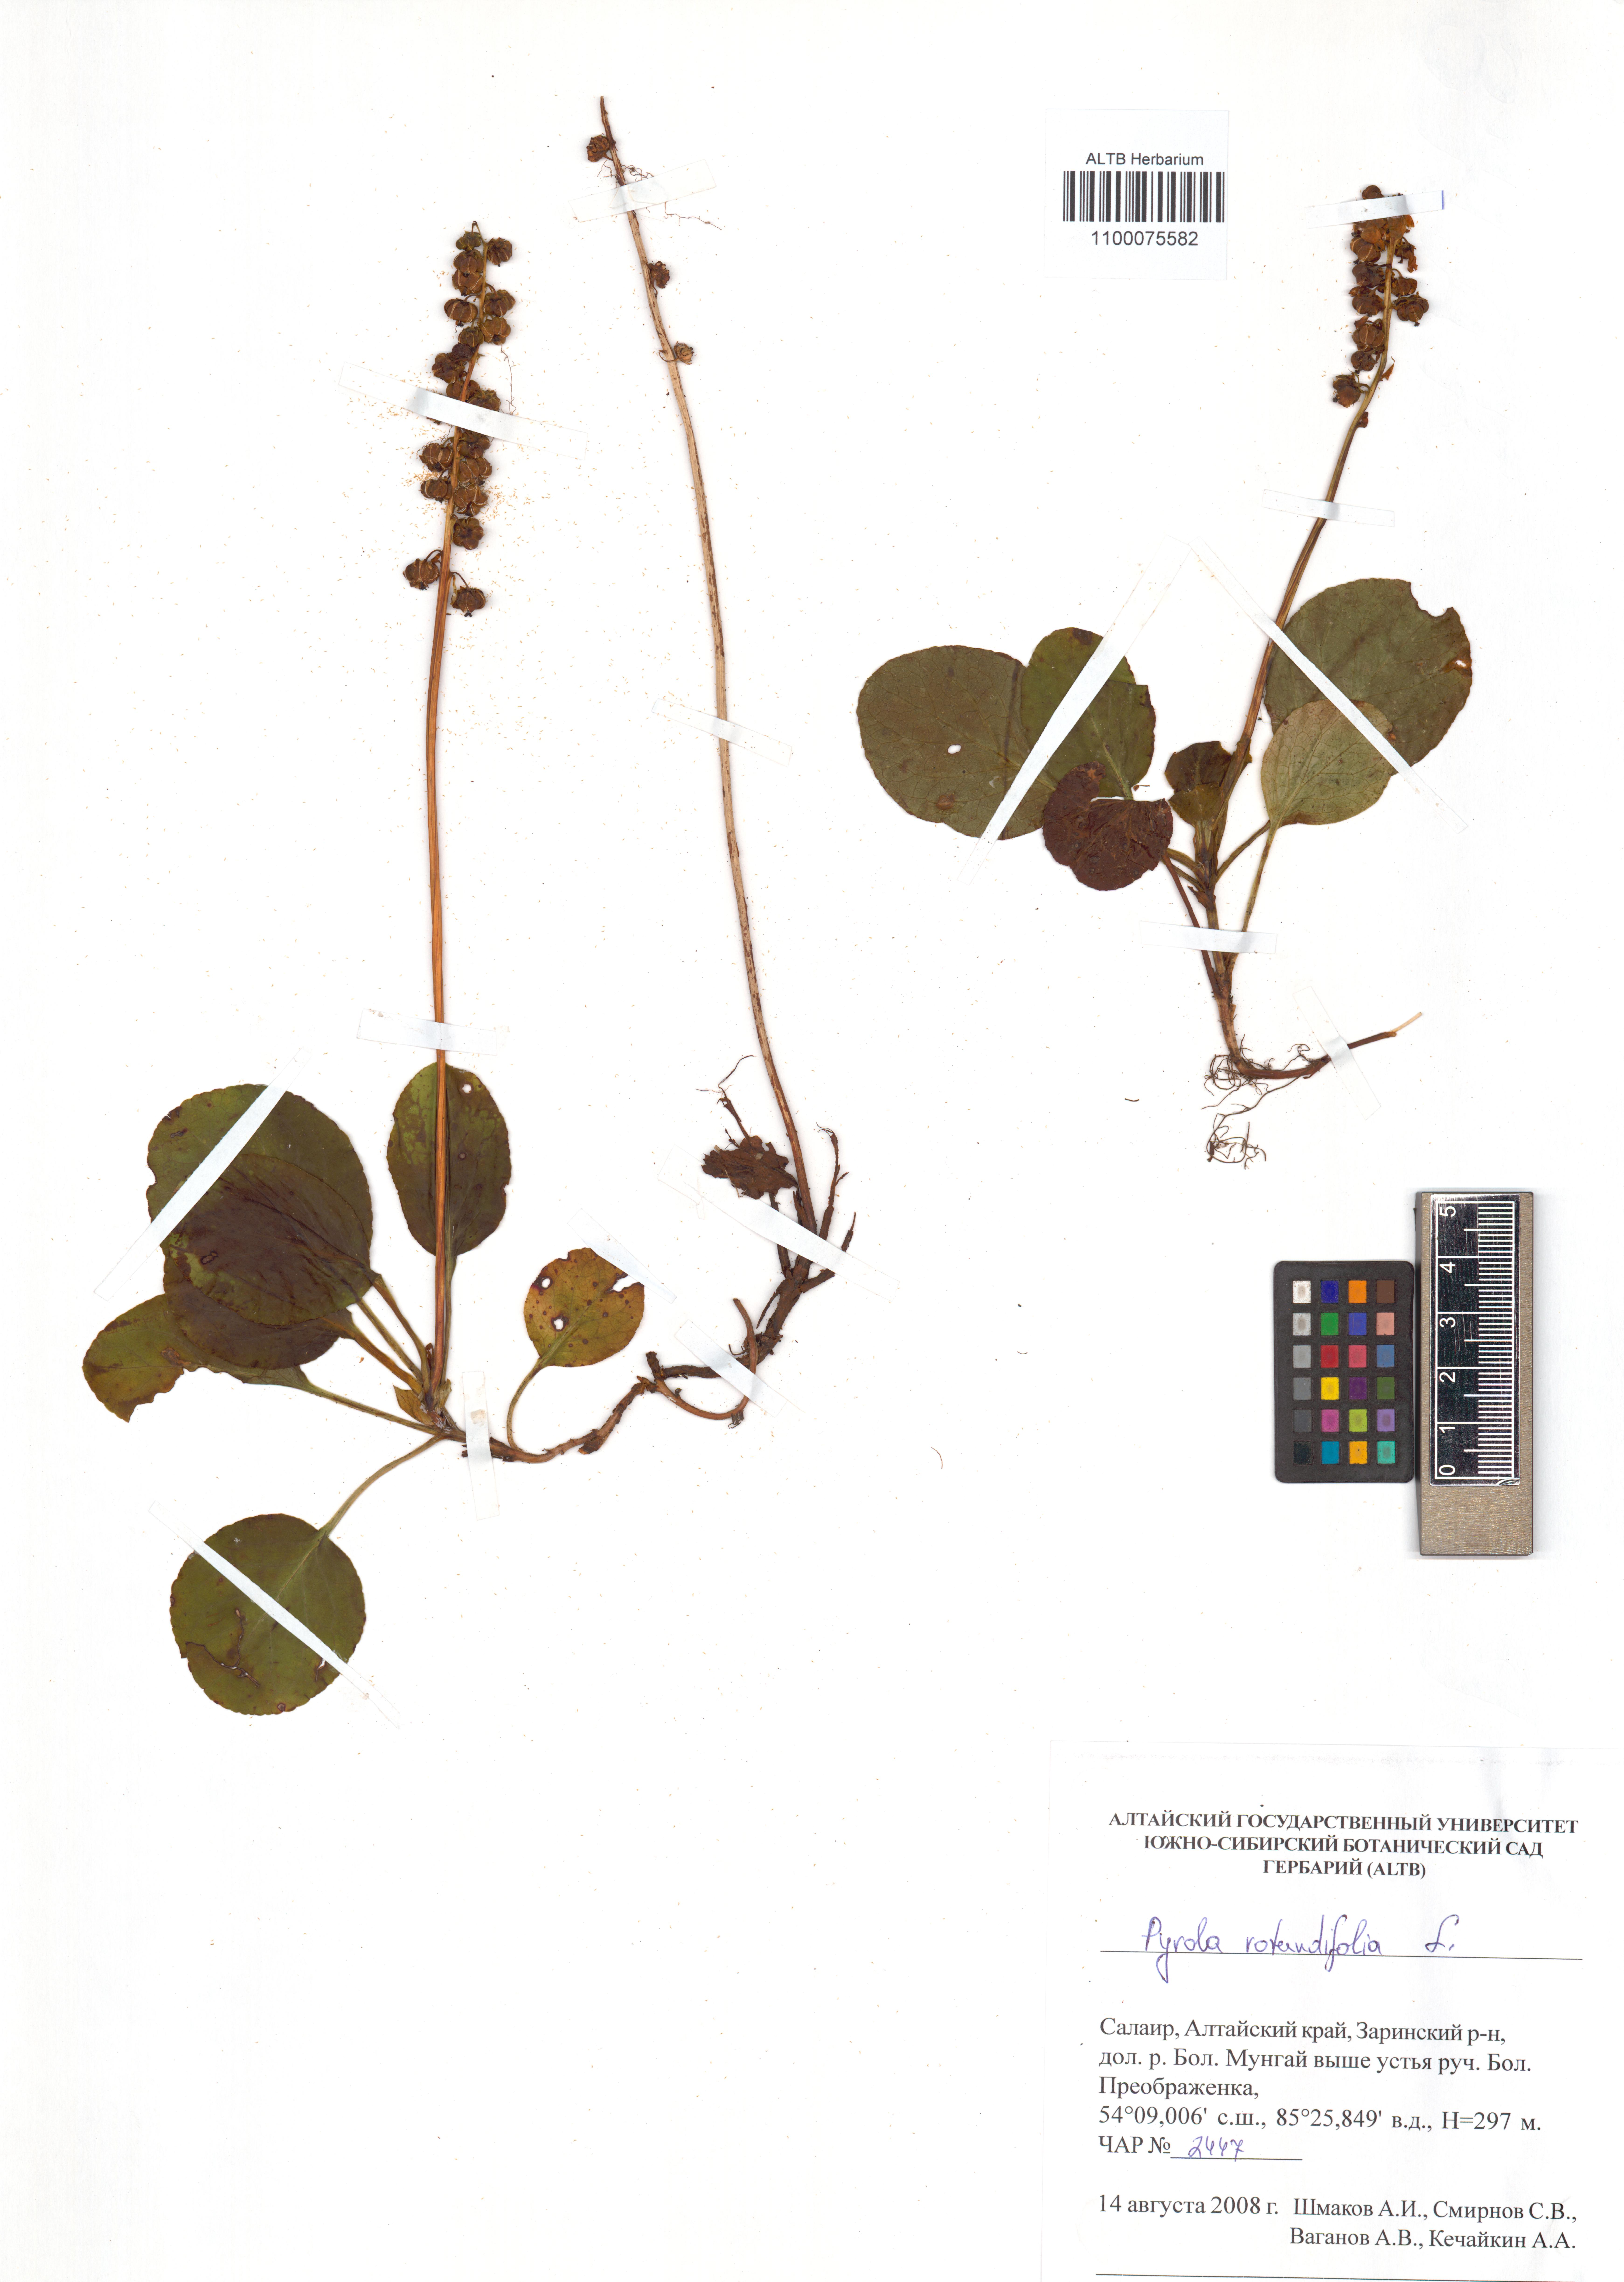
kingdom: Plantae
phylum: Tracheophyta
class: Magnoliopsida
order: Ericales
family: Ericaceae
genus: Pyrola
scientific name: Pyrola rotundifolia
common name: Round-leaved wintergreen
